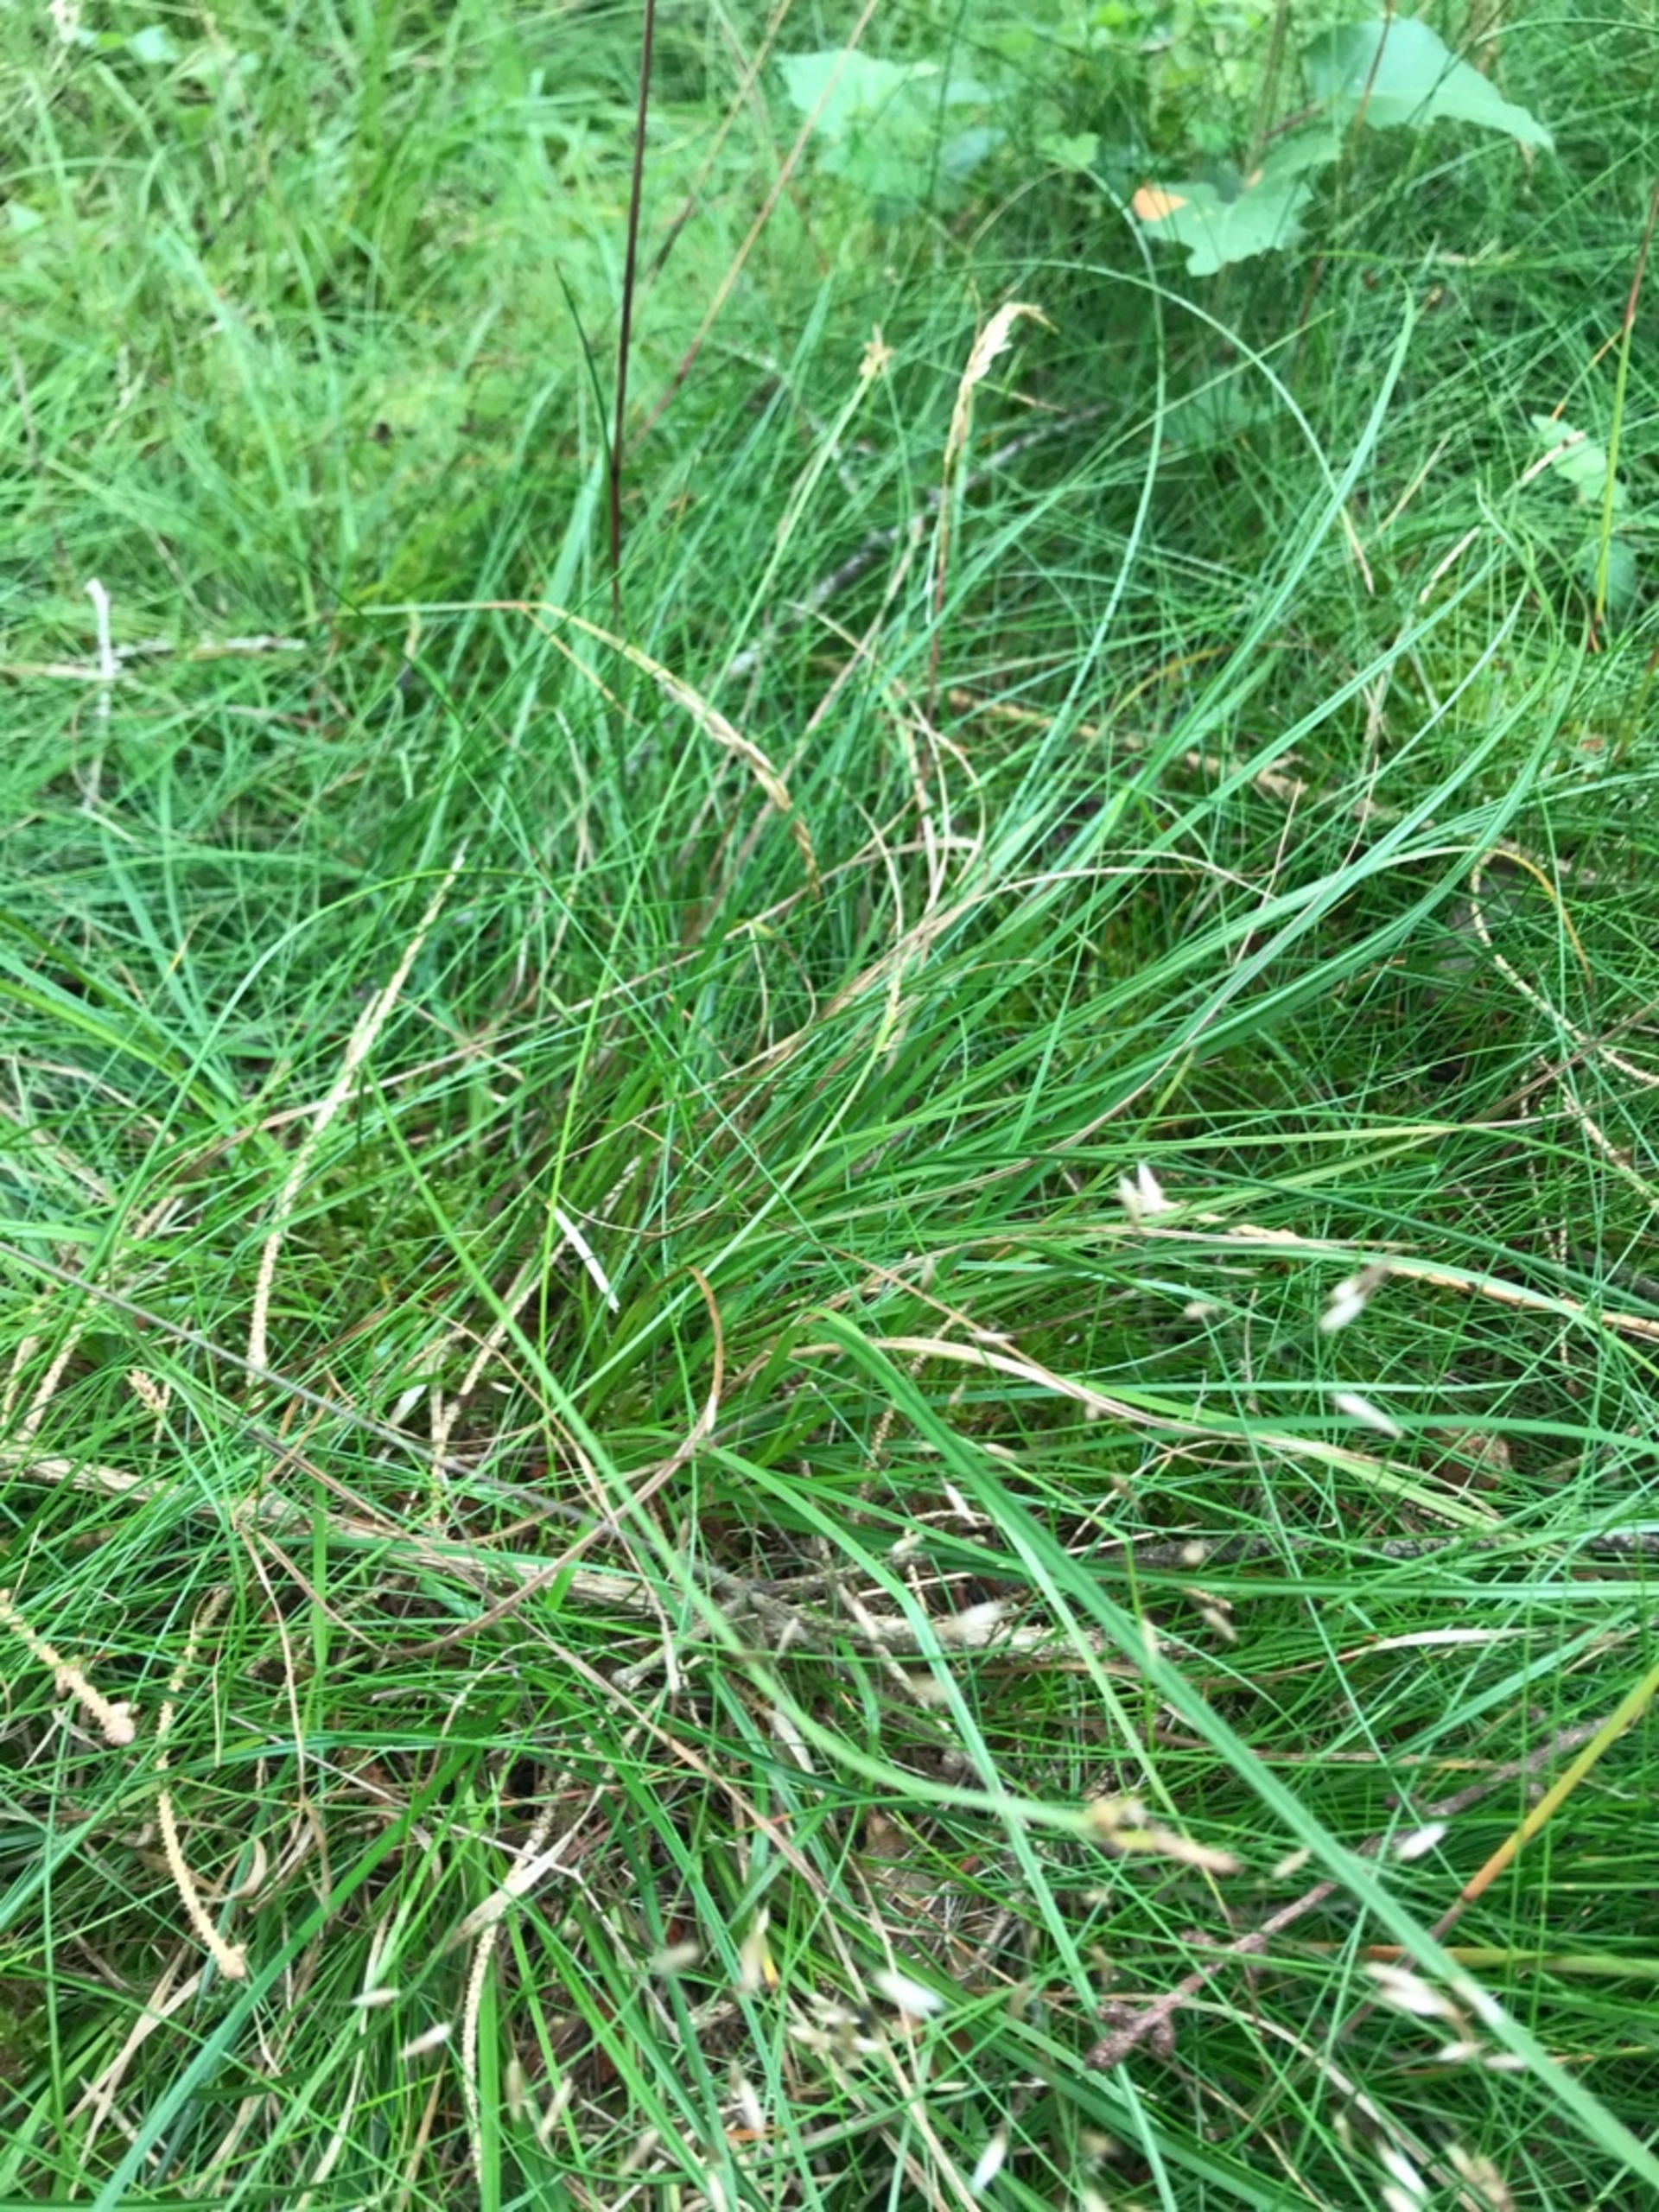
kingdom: Plantae
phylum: Tracheophyta
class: Liliopsida
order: Poales
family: Cyperaceae
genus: Carex
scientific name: Carex pilulifera
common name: Pille-star
